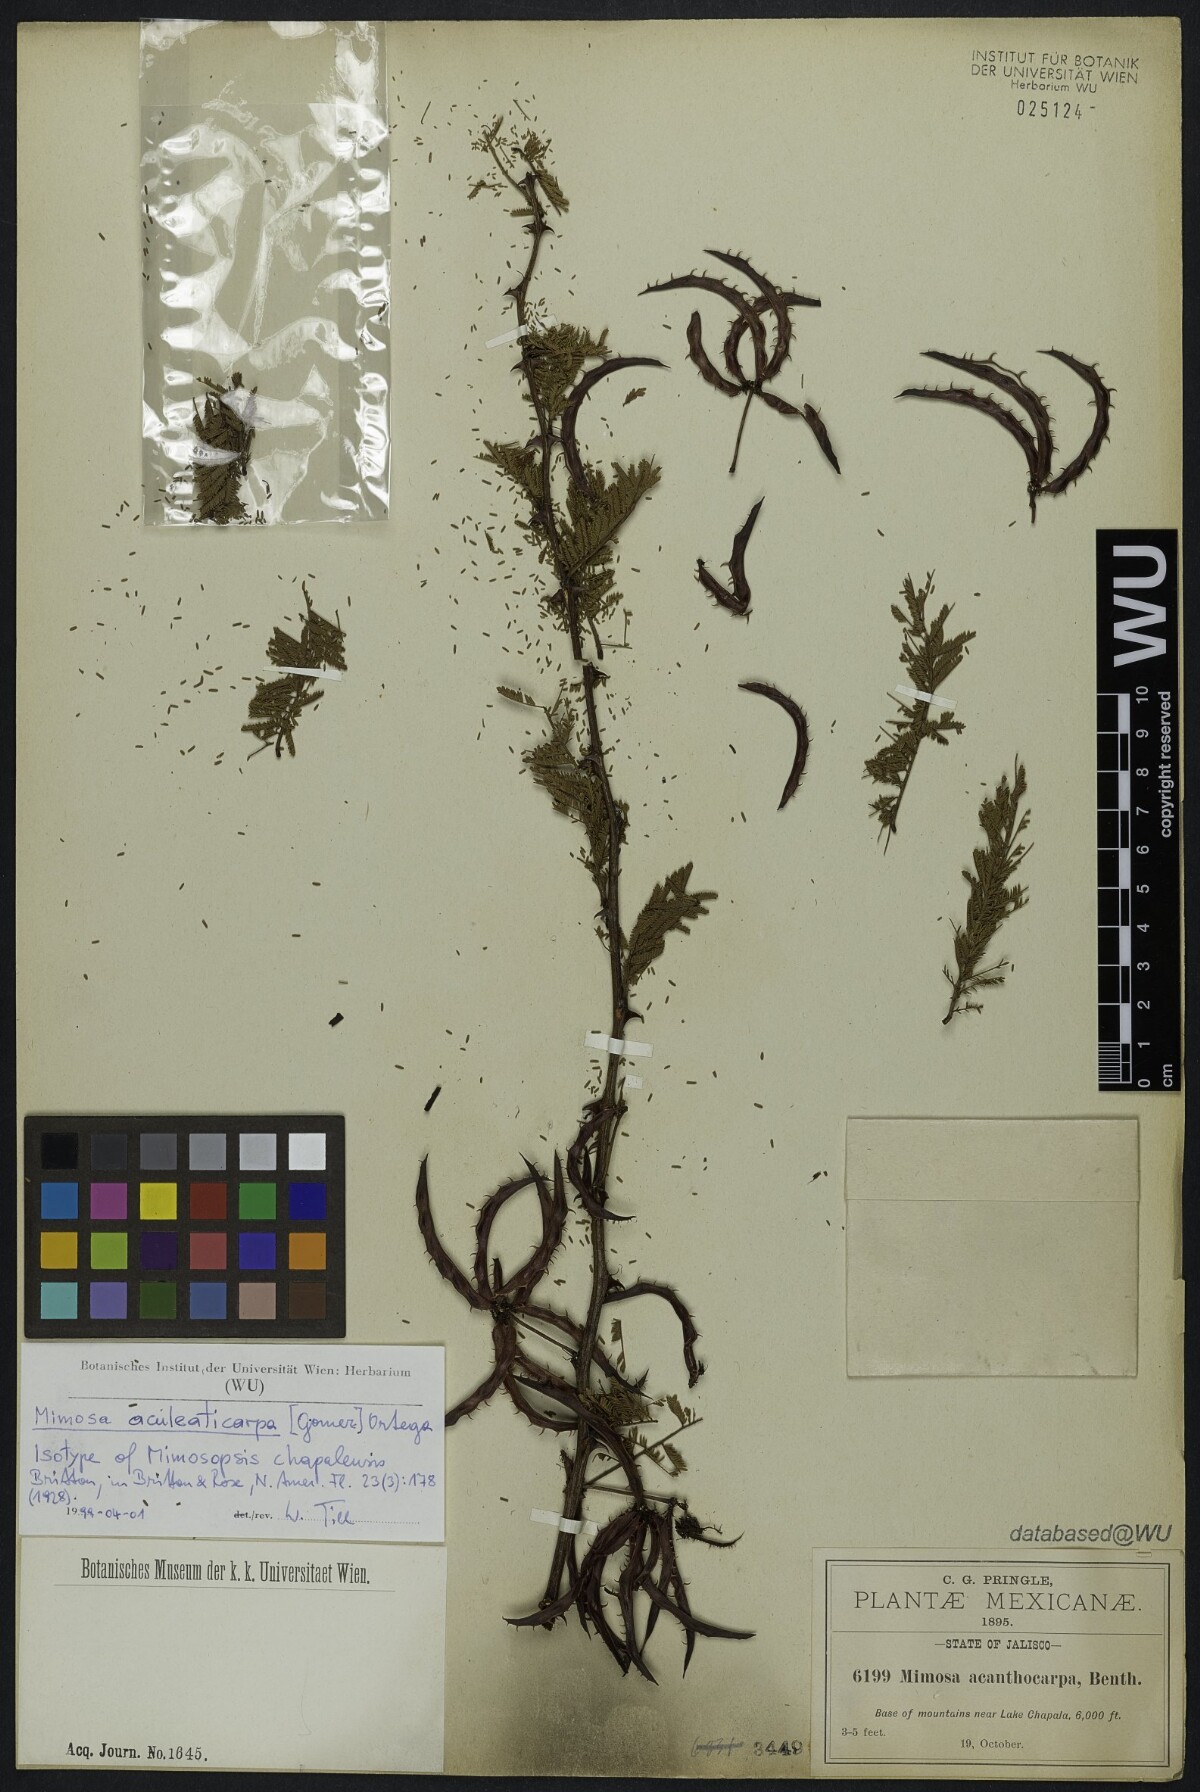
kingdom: Plantae
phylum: Tracheophyta
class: Magnoliopsida
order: Fabales
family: Fabaceae
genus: Mimosa
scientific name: Mimosa biuncifera
